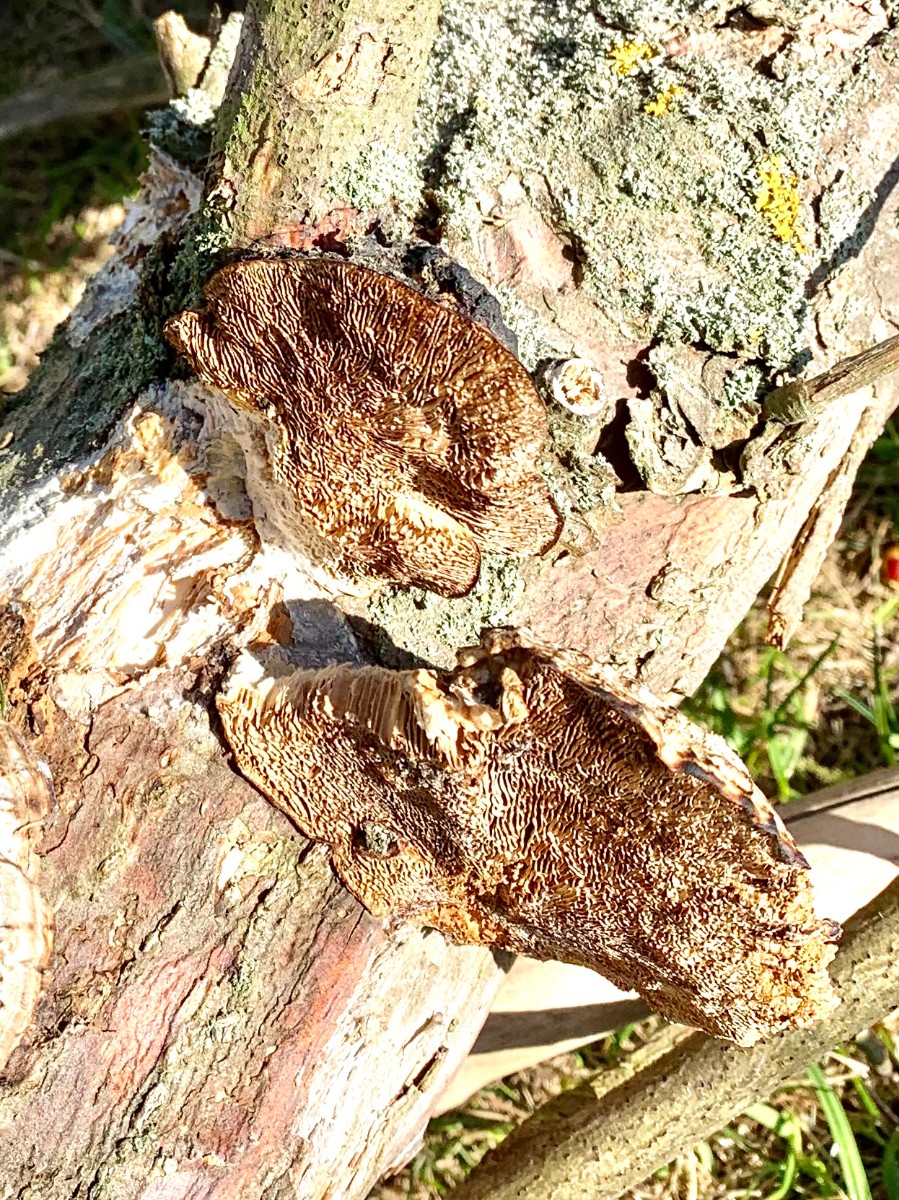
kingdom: Fungi
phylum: Basidiomycota
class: Agaricomycetes
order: Polyporales
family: Polyporaceae
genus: Daedaleopsis
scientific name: Daedaleopsis confragosa
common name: rødmende læderporesvamp
